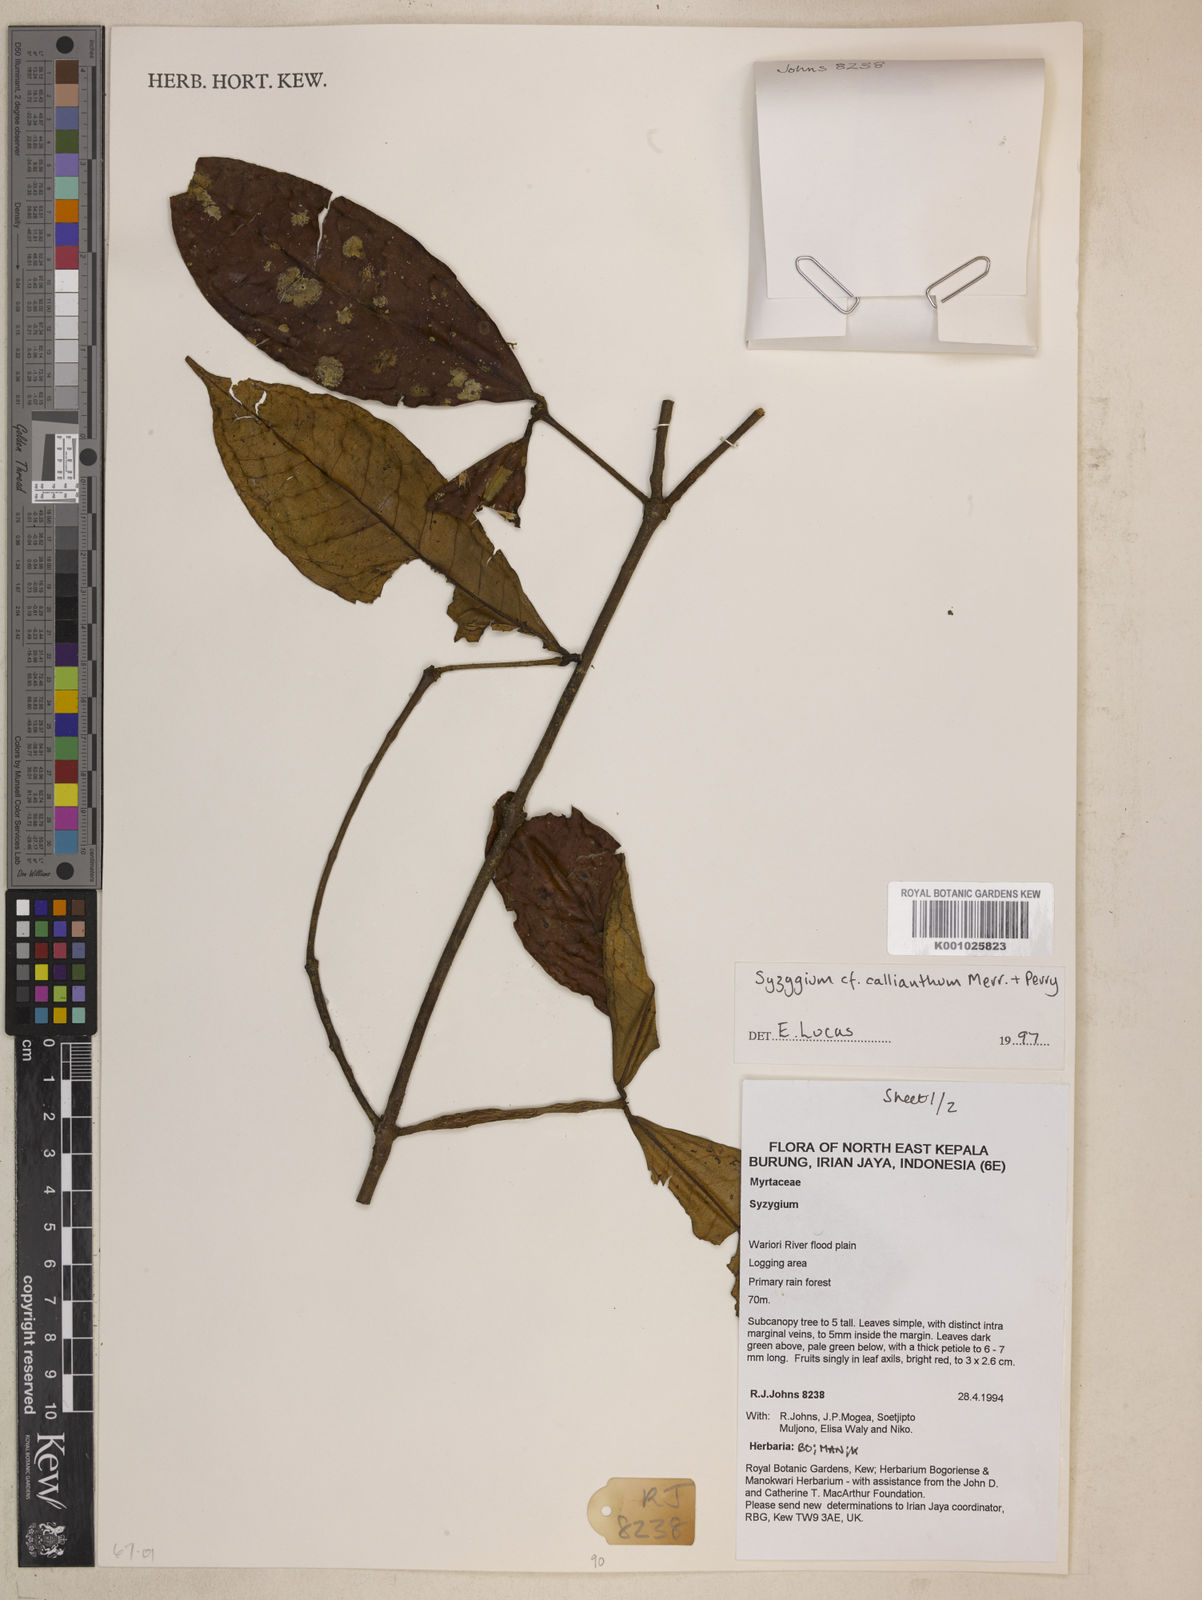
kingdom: Plantae
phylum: Tracheophyta
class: Magnoliopsida
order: Myrtales
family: Myrtaceae
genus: Syzygium
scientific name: Syzygium callianthum
